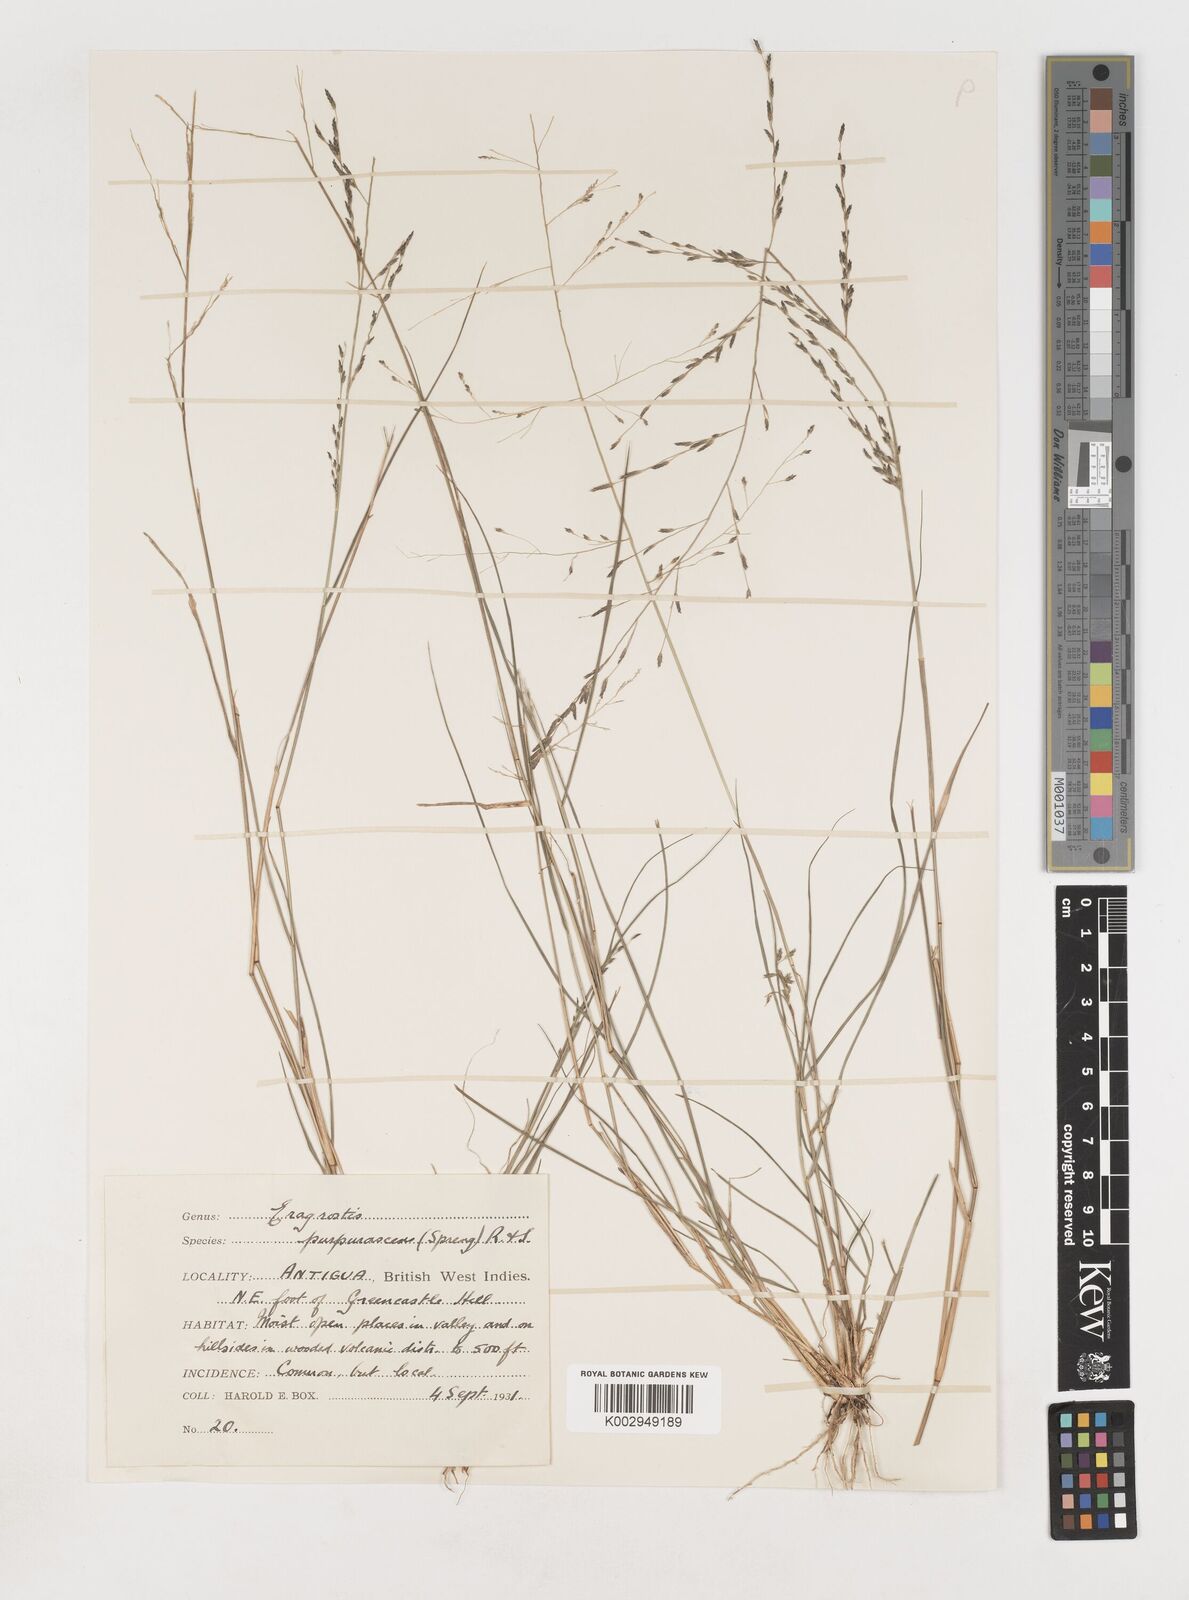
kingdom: Plantae
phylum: Tracheophyta
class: Liliopsida
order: Poales
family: Poaceae
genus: Eragrostis
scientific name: Eragrostis purpurascens
